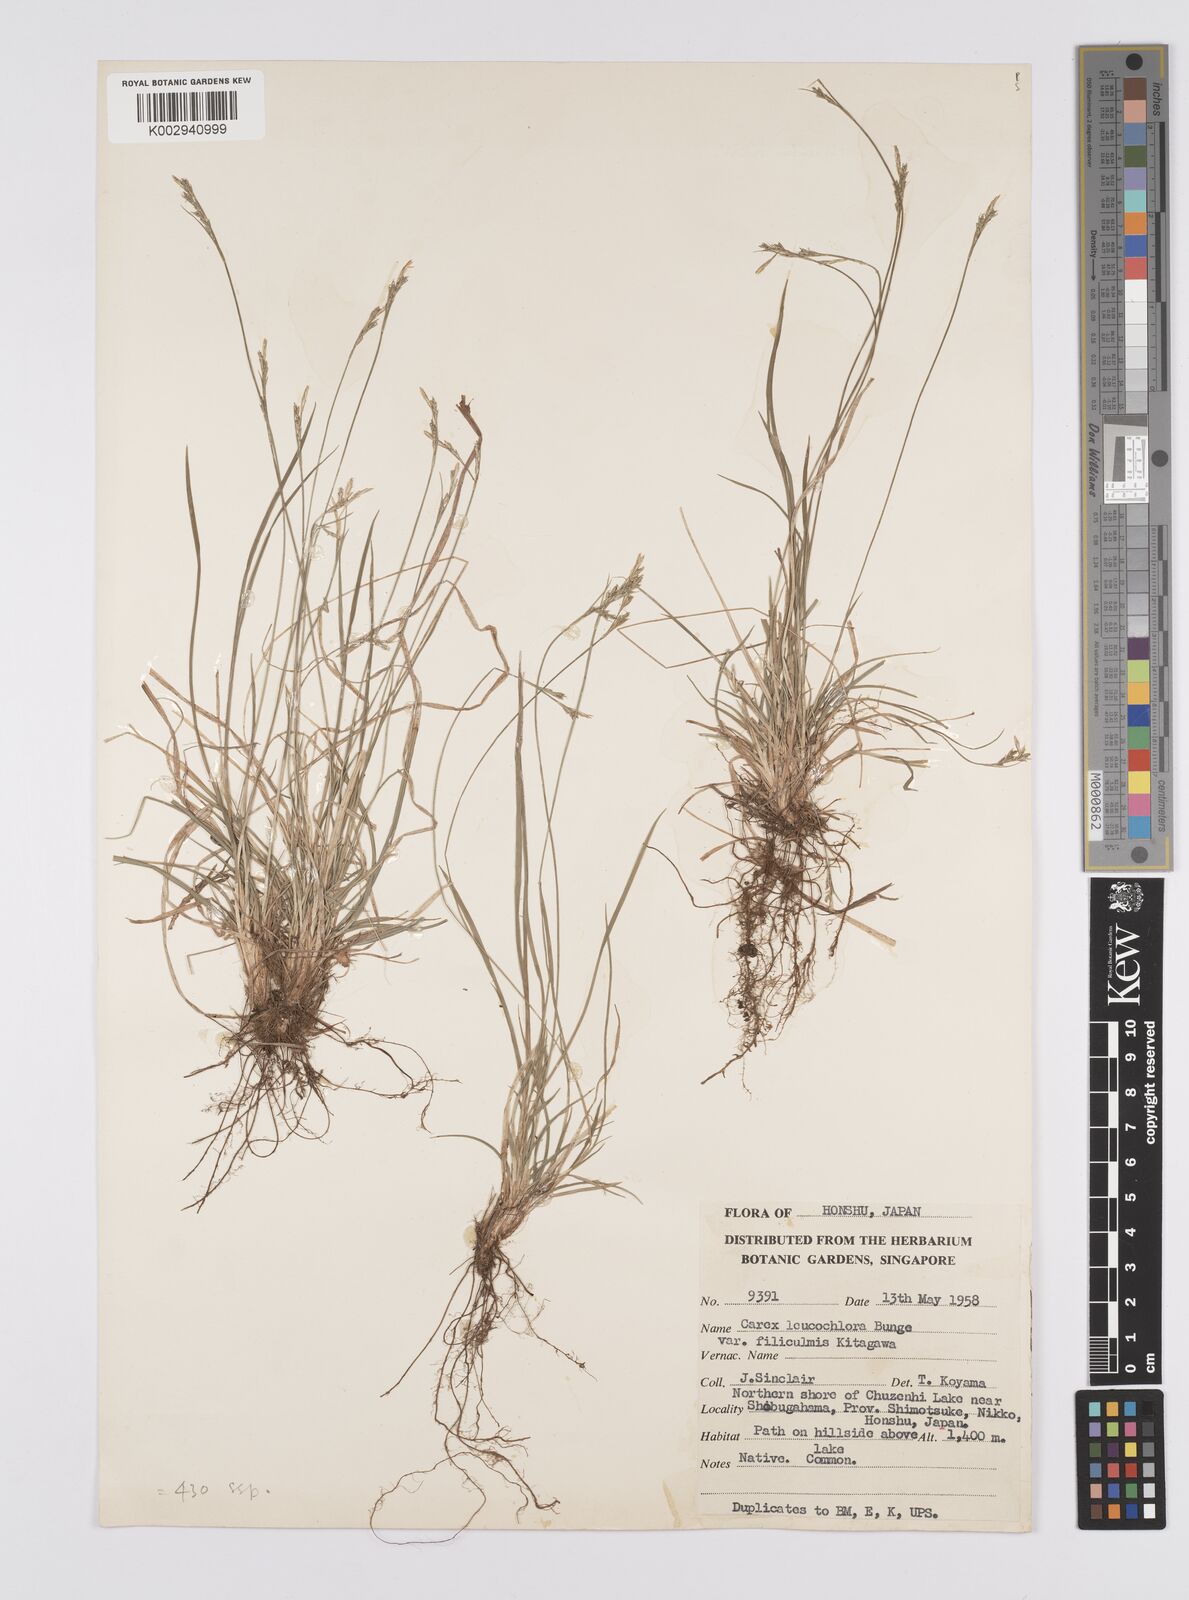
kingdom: Plantae
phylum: Tracheophyta
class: Liliopsida
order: Poales
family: Cyperaceae
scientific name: Cyperaceae
